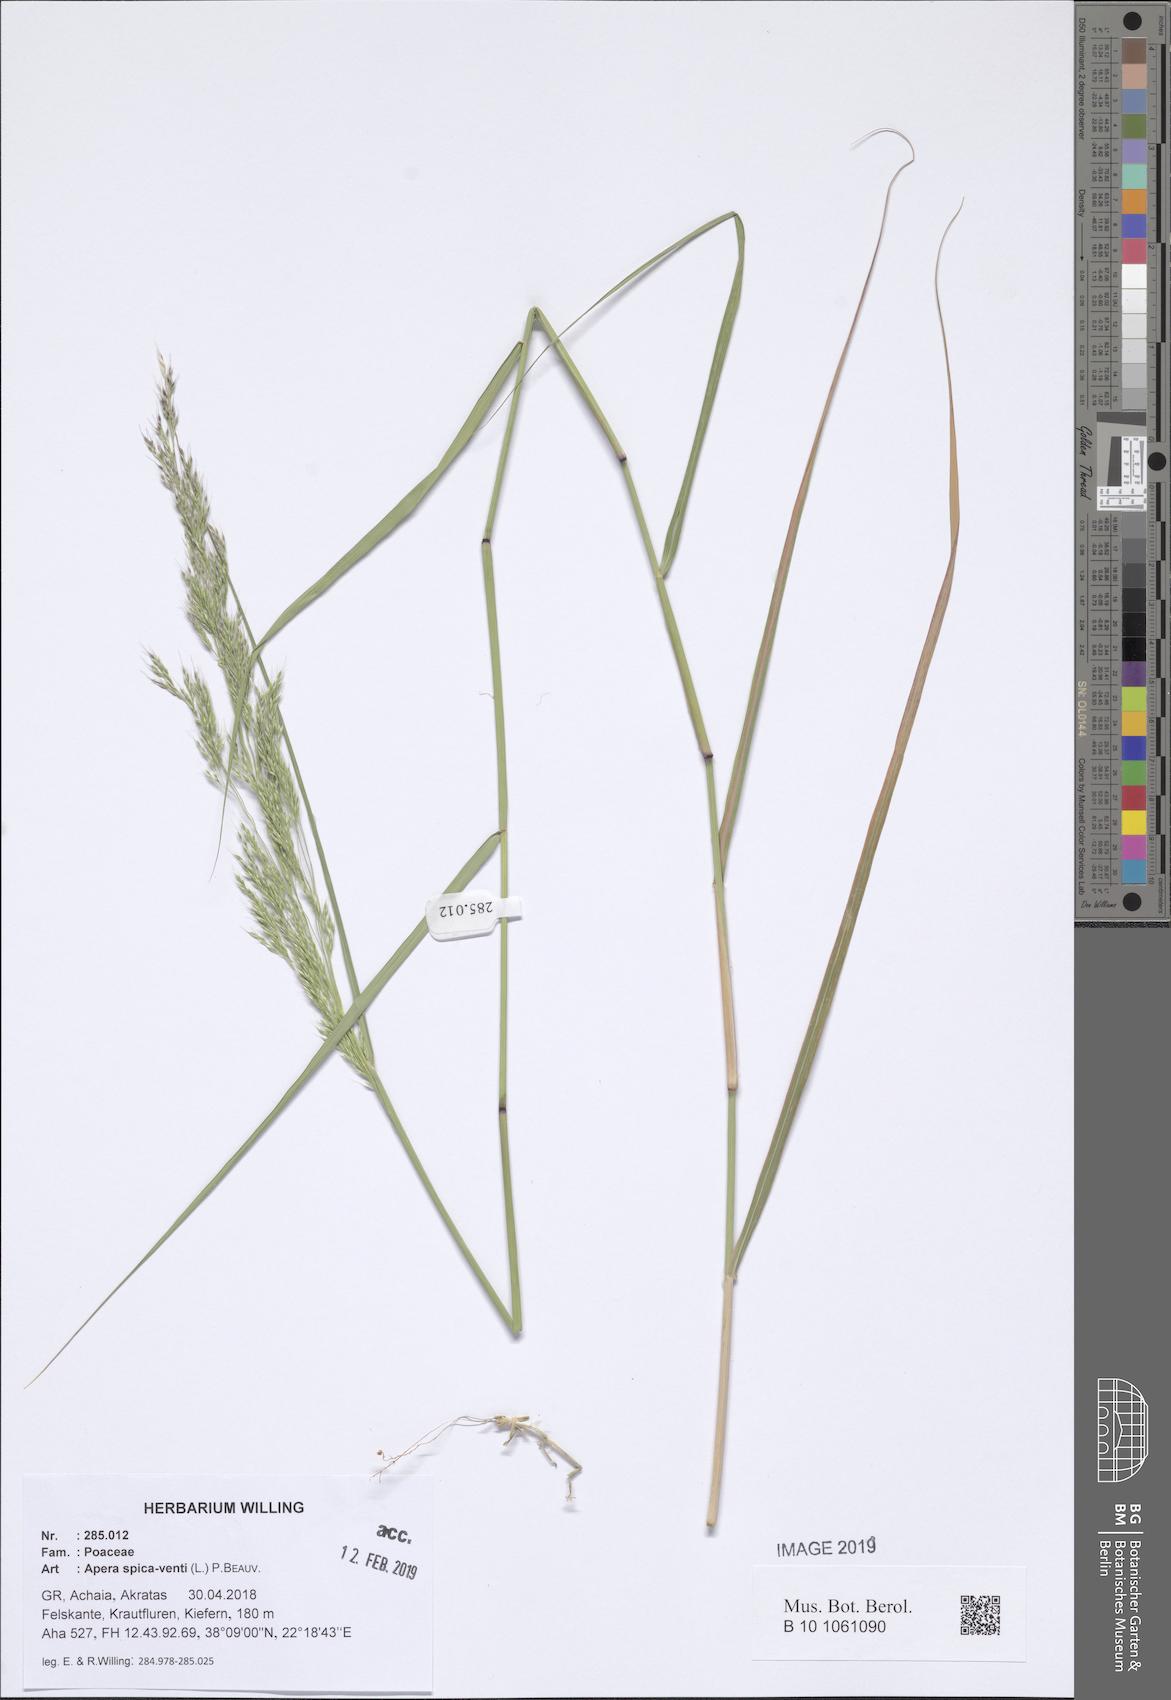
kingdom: Plantae
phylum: Tracheophyta
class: Liliopsida
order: Poales
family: Poaceae
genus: Apera
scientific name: Apera spica-venti
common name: Loose silky-bent
